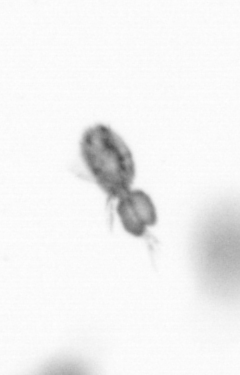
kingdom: Animalia
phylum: Arthropoda
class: Copepoda
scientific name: Copepoda
